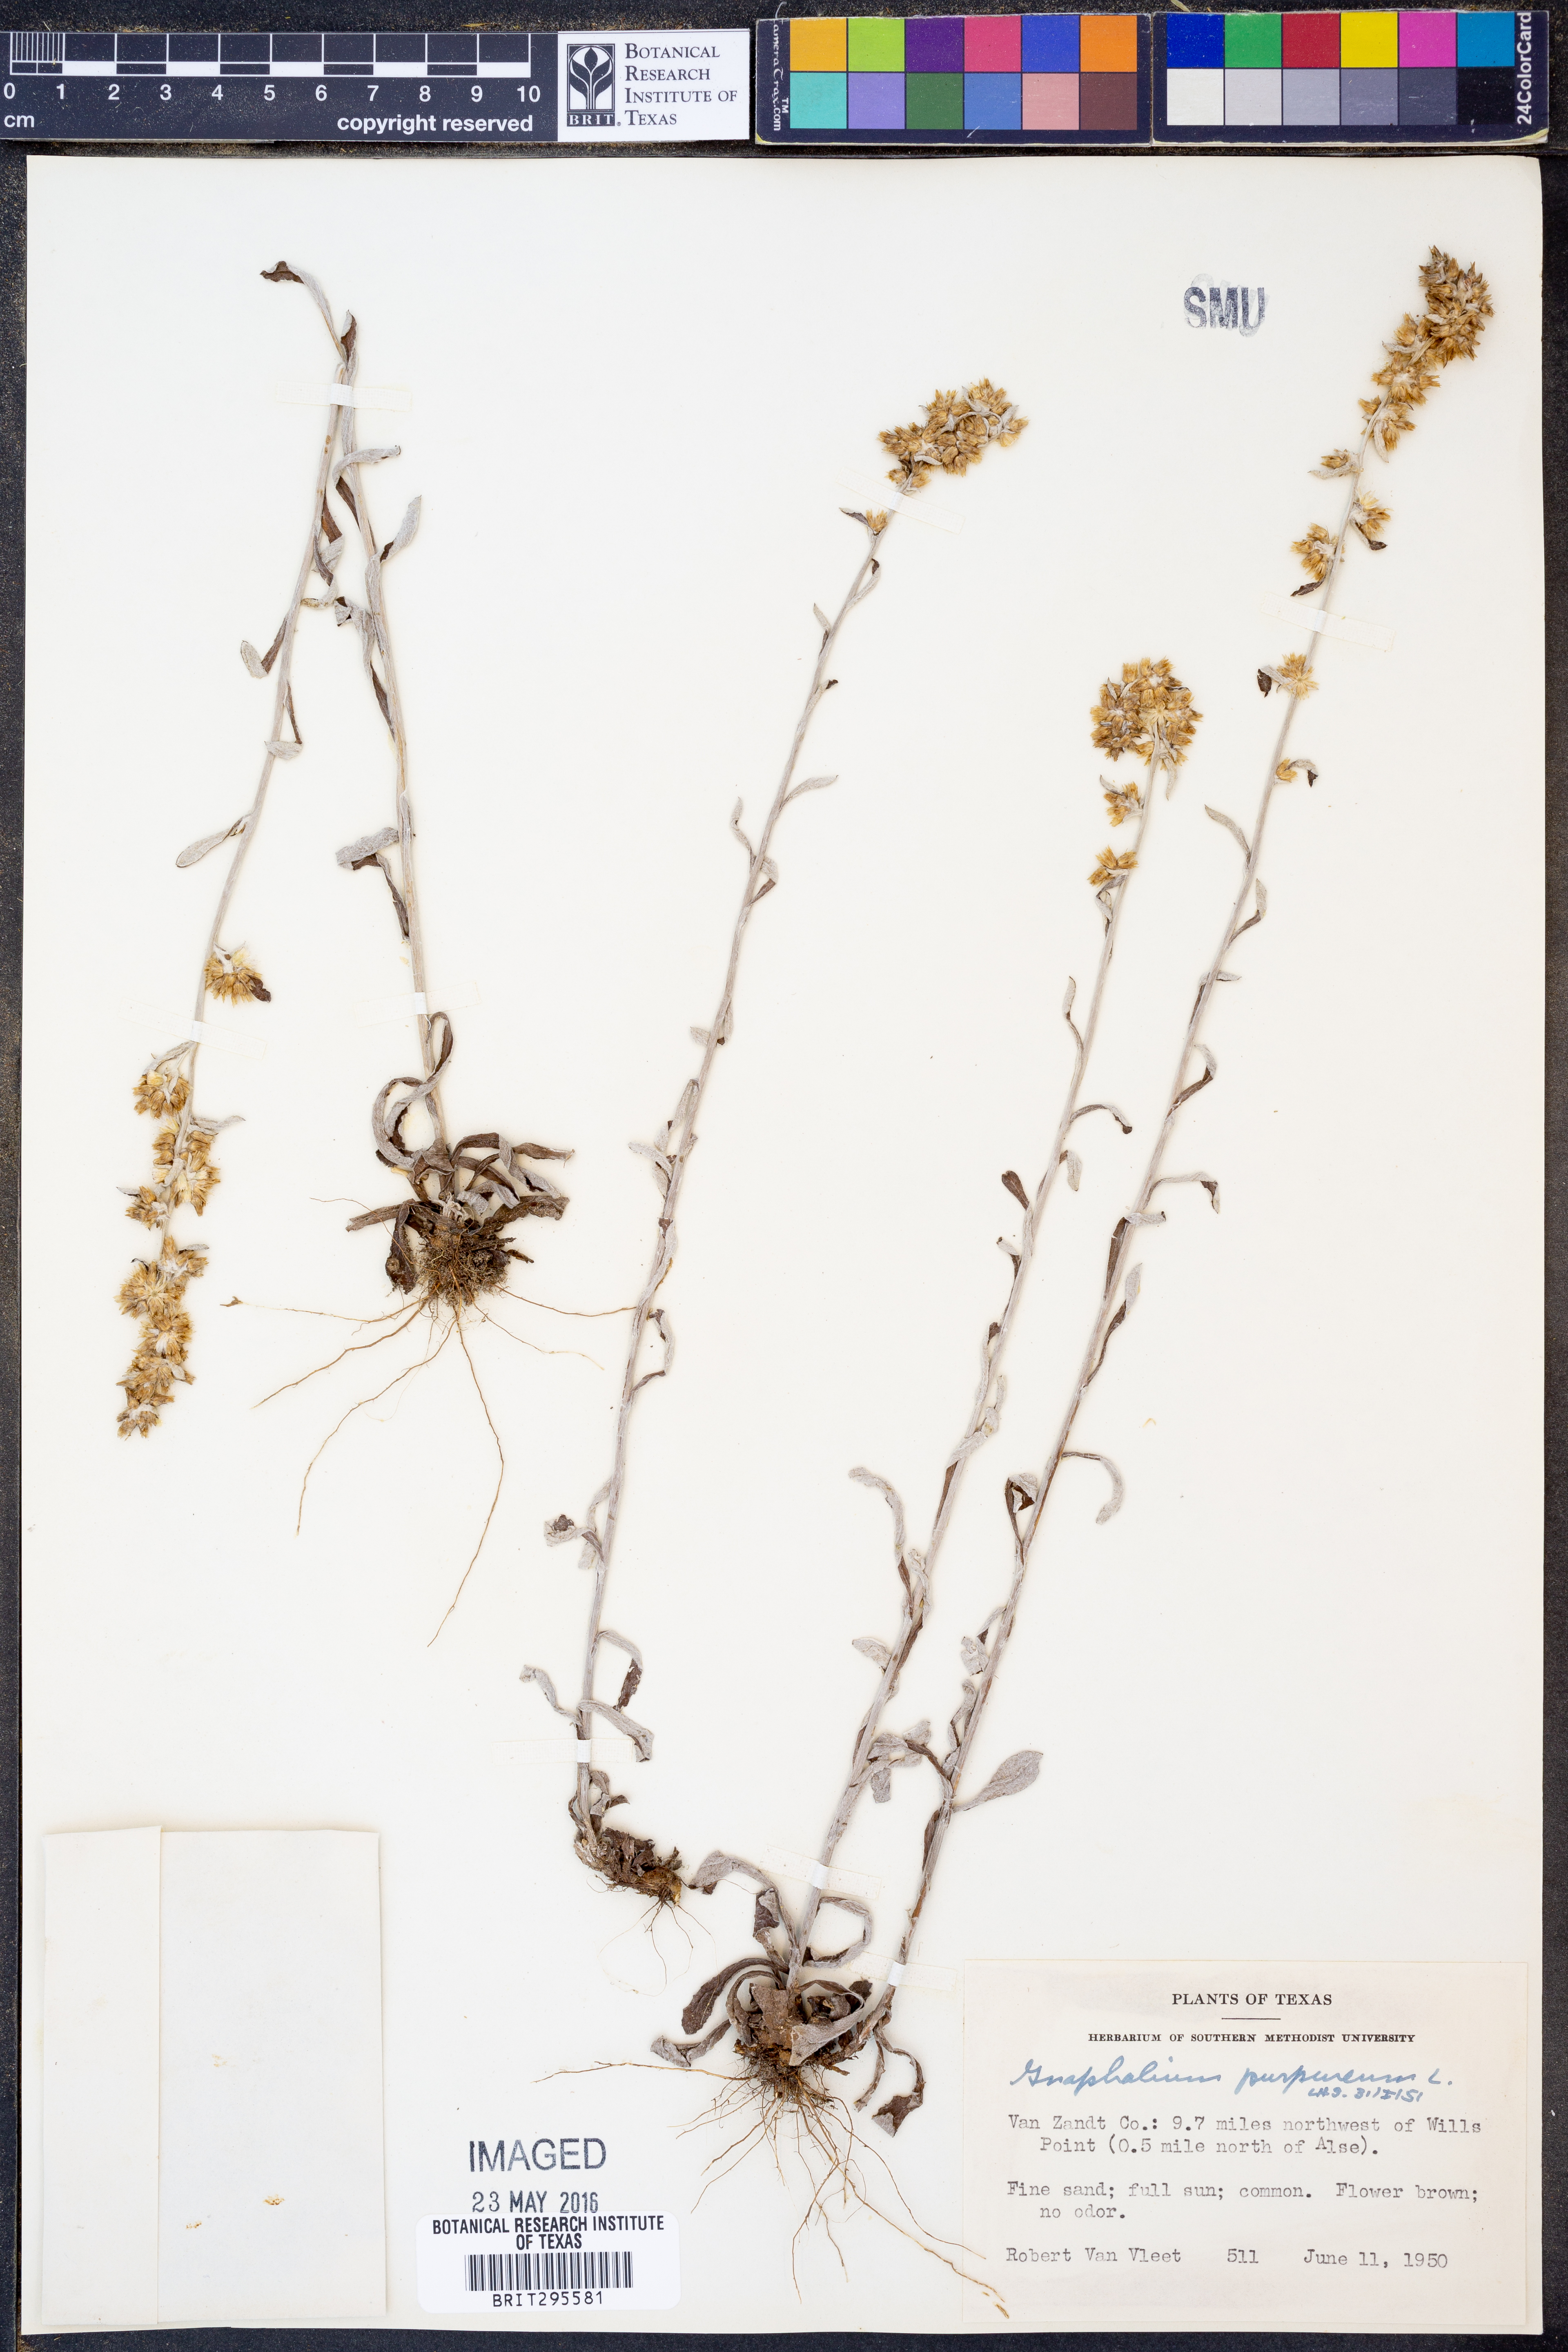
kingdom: Plantae
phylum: Tracheophyta
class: Magnoliopsida
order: Asterales
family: Asteraceae
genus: Gamochaeta
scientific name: Gamochaeta purpurea
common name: Purple cudweed
